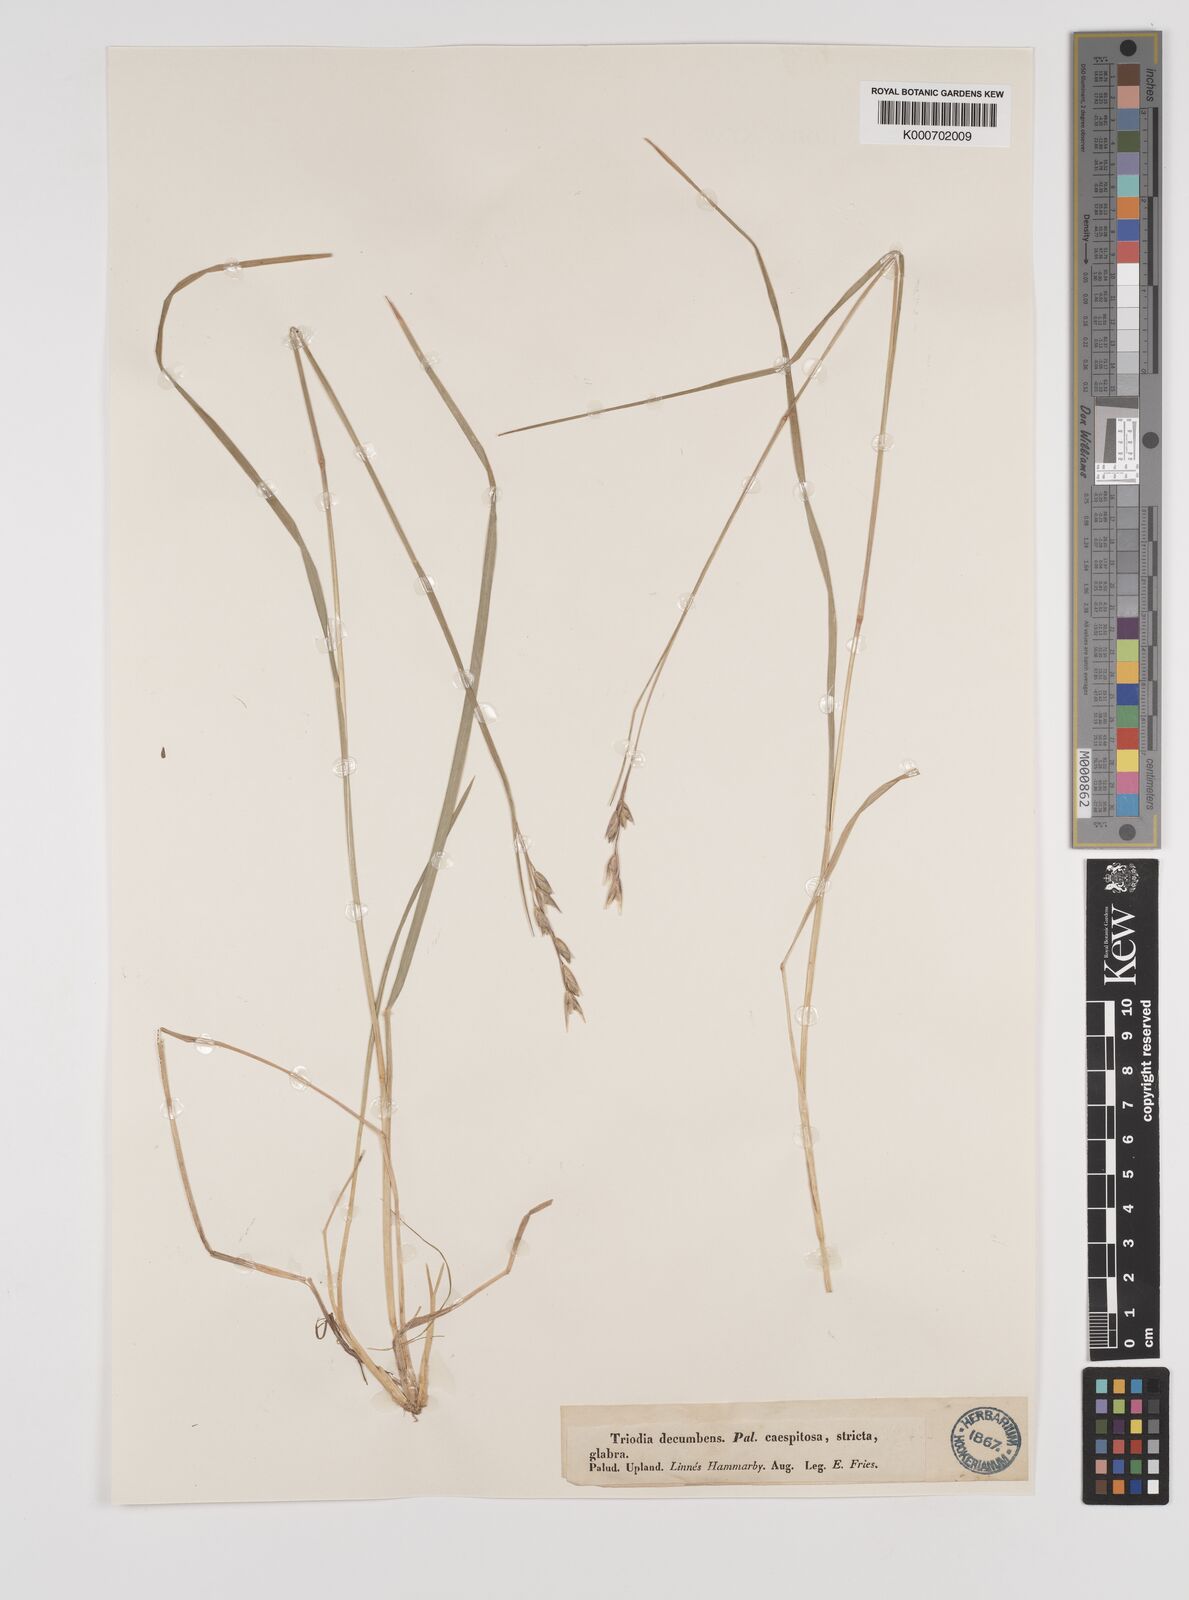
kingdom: Plantae
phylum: Tracheophyta
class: Liliopsida
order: Poales
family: Poaceae
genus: Danthonia
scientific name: Danthonia decumbens
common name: Common heathgrass
